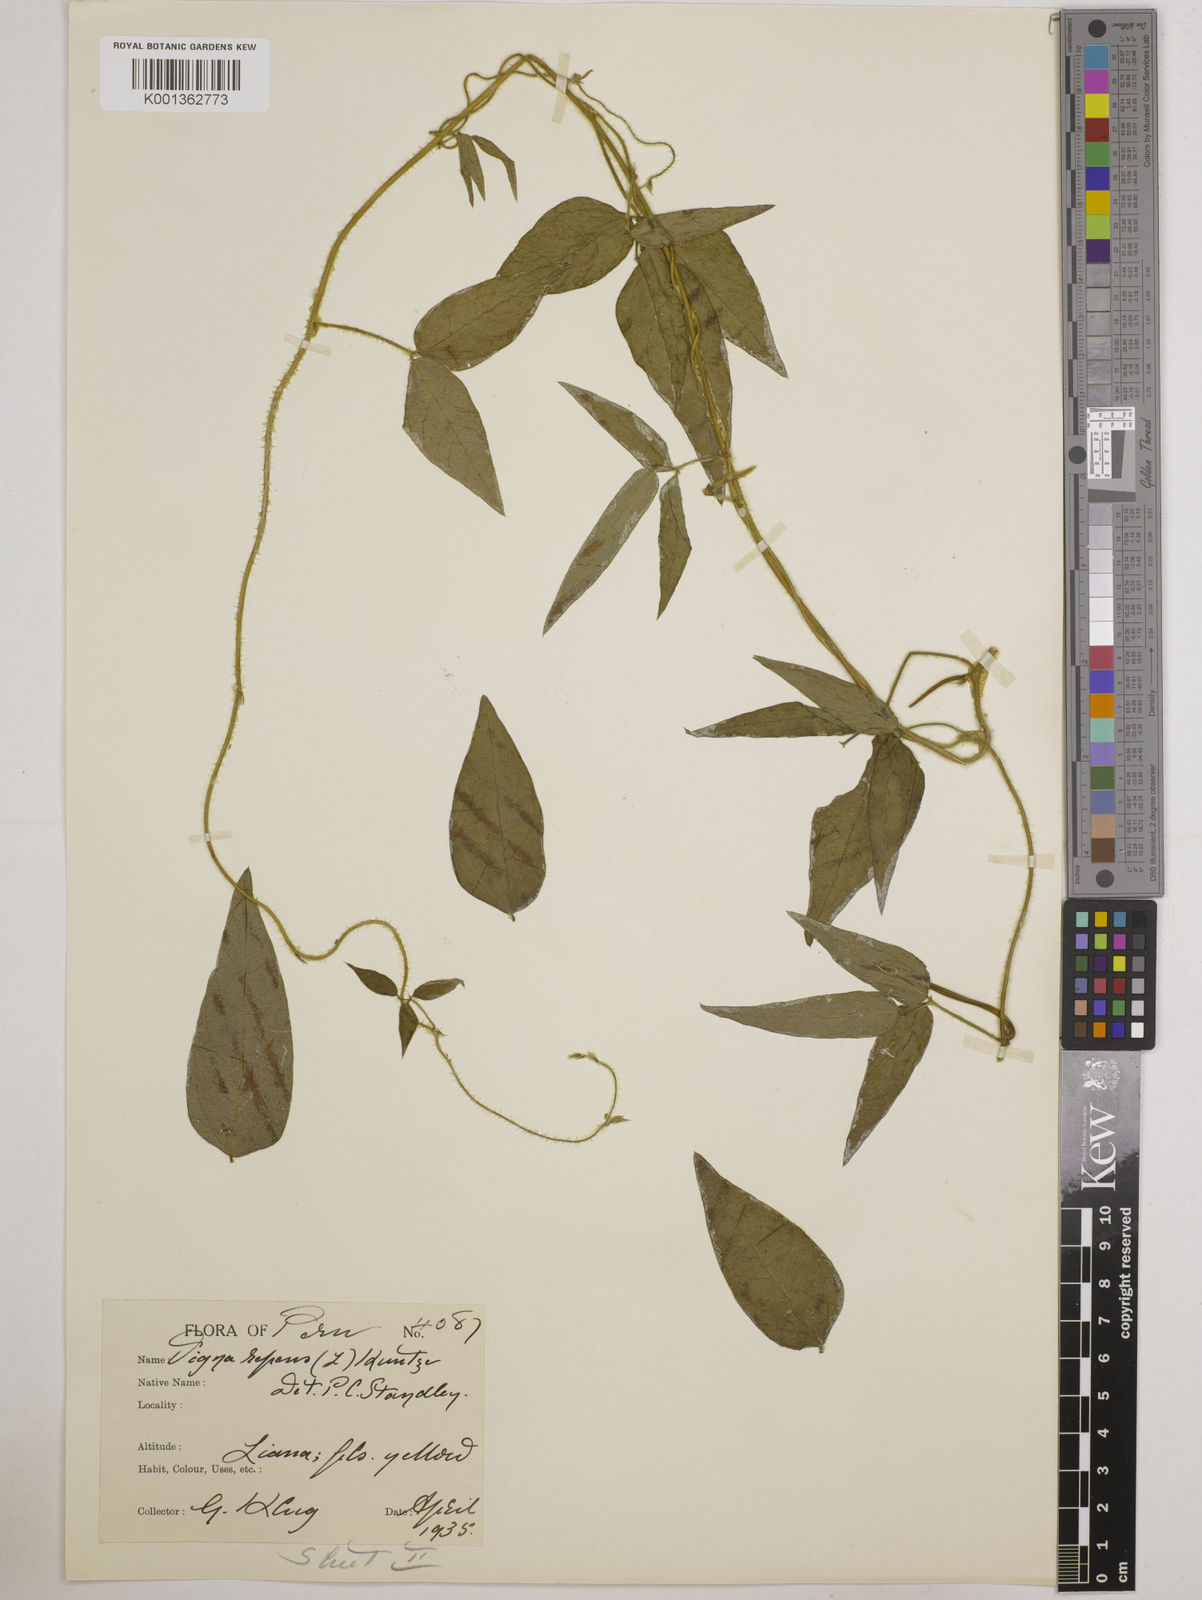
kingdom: Plantae
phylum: Tracheophyta
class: Magnoliopsida
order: Fabales
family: Fabaceae
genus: Vigna
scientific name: Vigna luteola
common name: Hairypod cowpea
